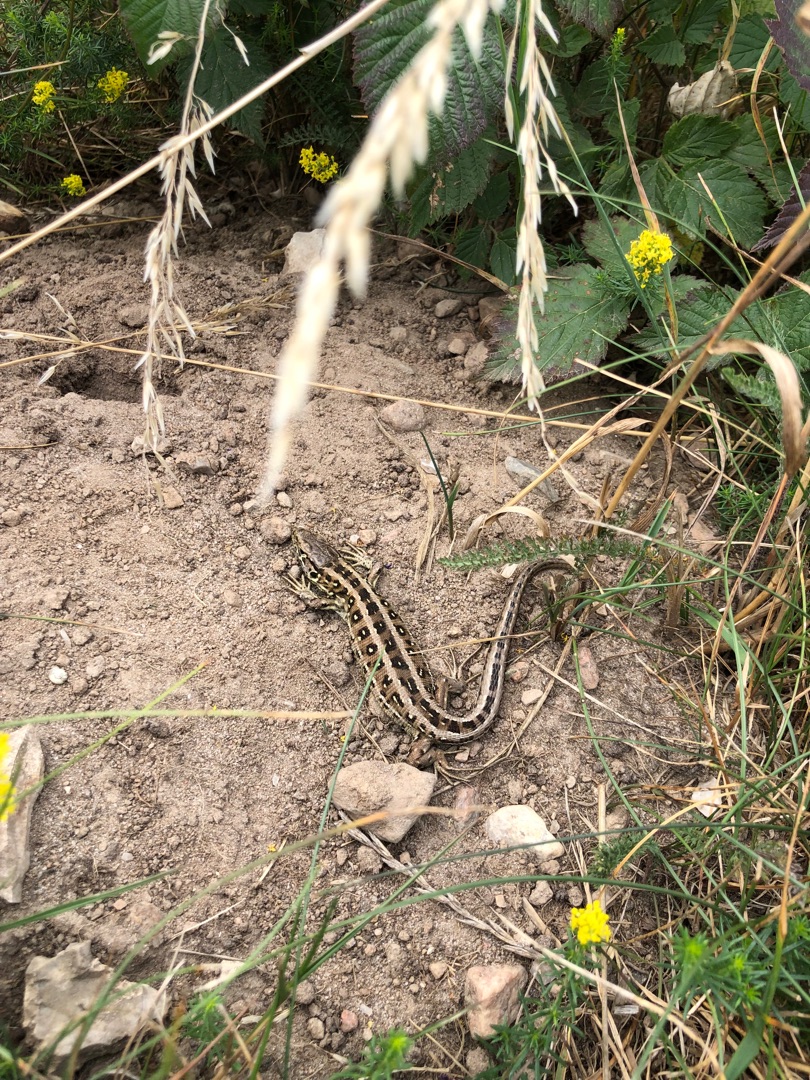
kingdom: Animalia
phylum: Chordata
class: Squamata
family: Lacertidae
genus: Lacerta
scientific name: Lacerta agilis
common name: Markfirben
